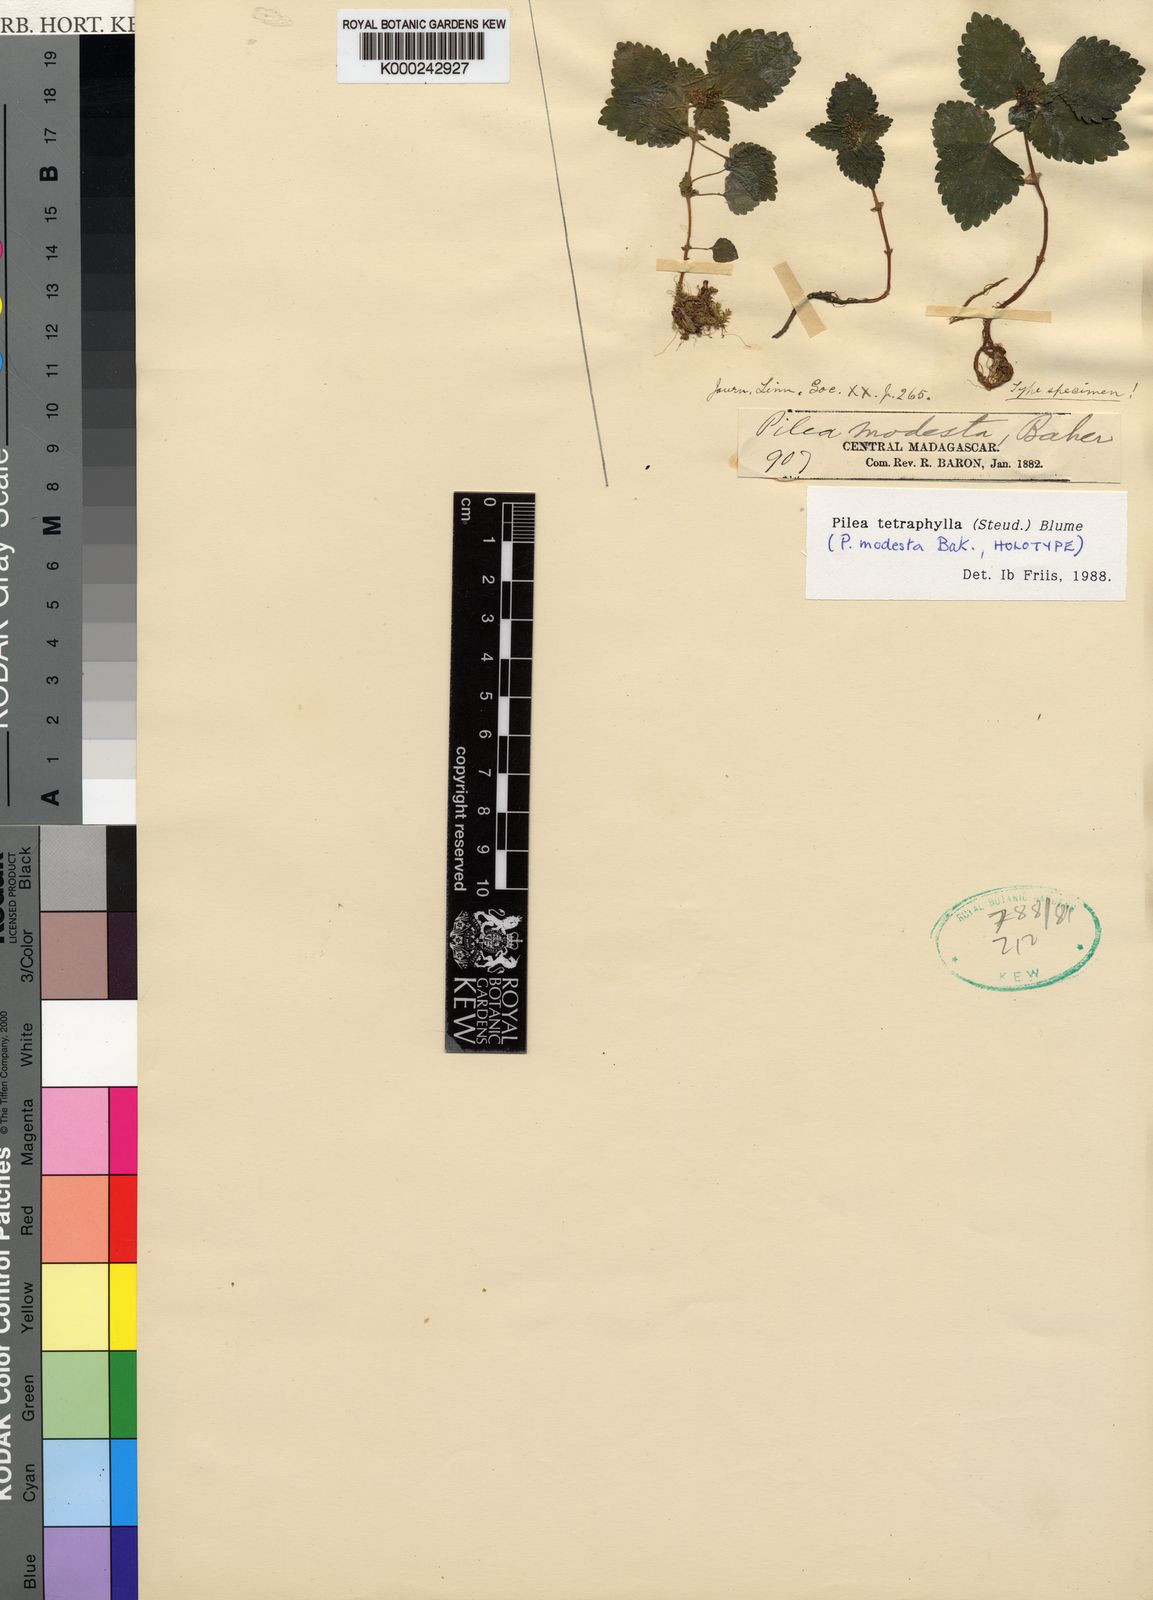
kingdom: Plantae
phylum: Tracheophyta
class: Magnoliopsida
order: Rosales
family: Urticaceae
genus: Pilea
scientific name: Pilea tetraphylla
